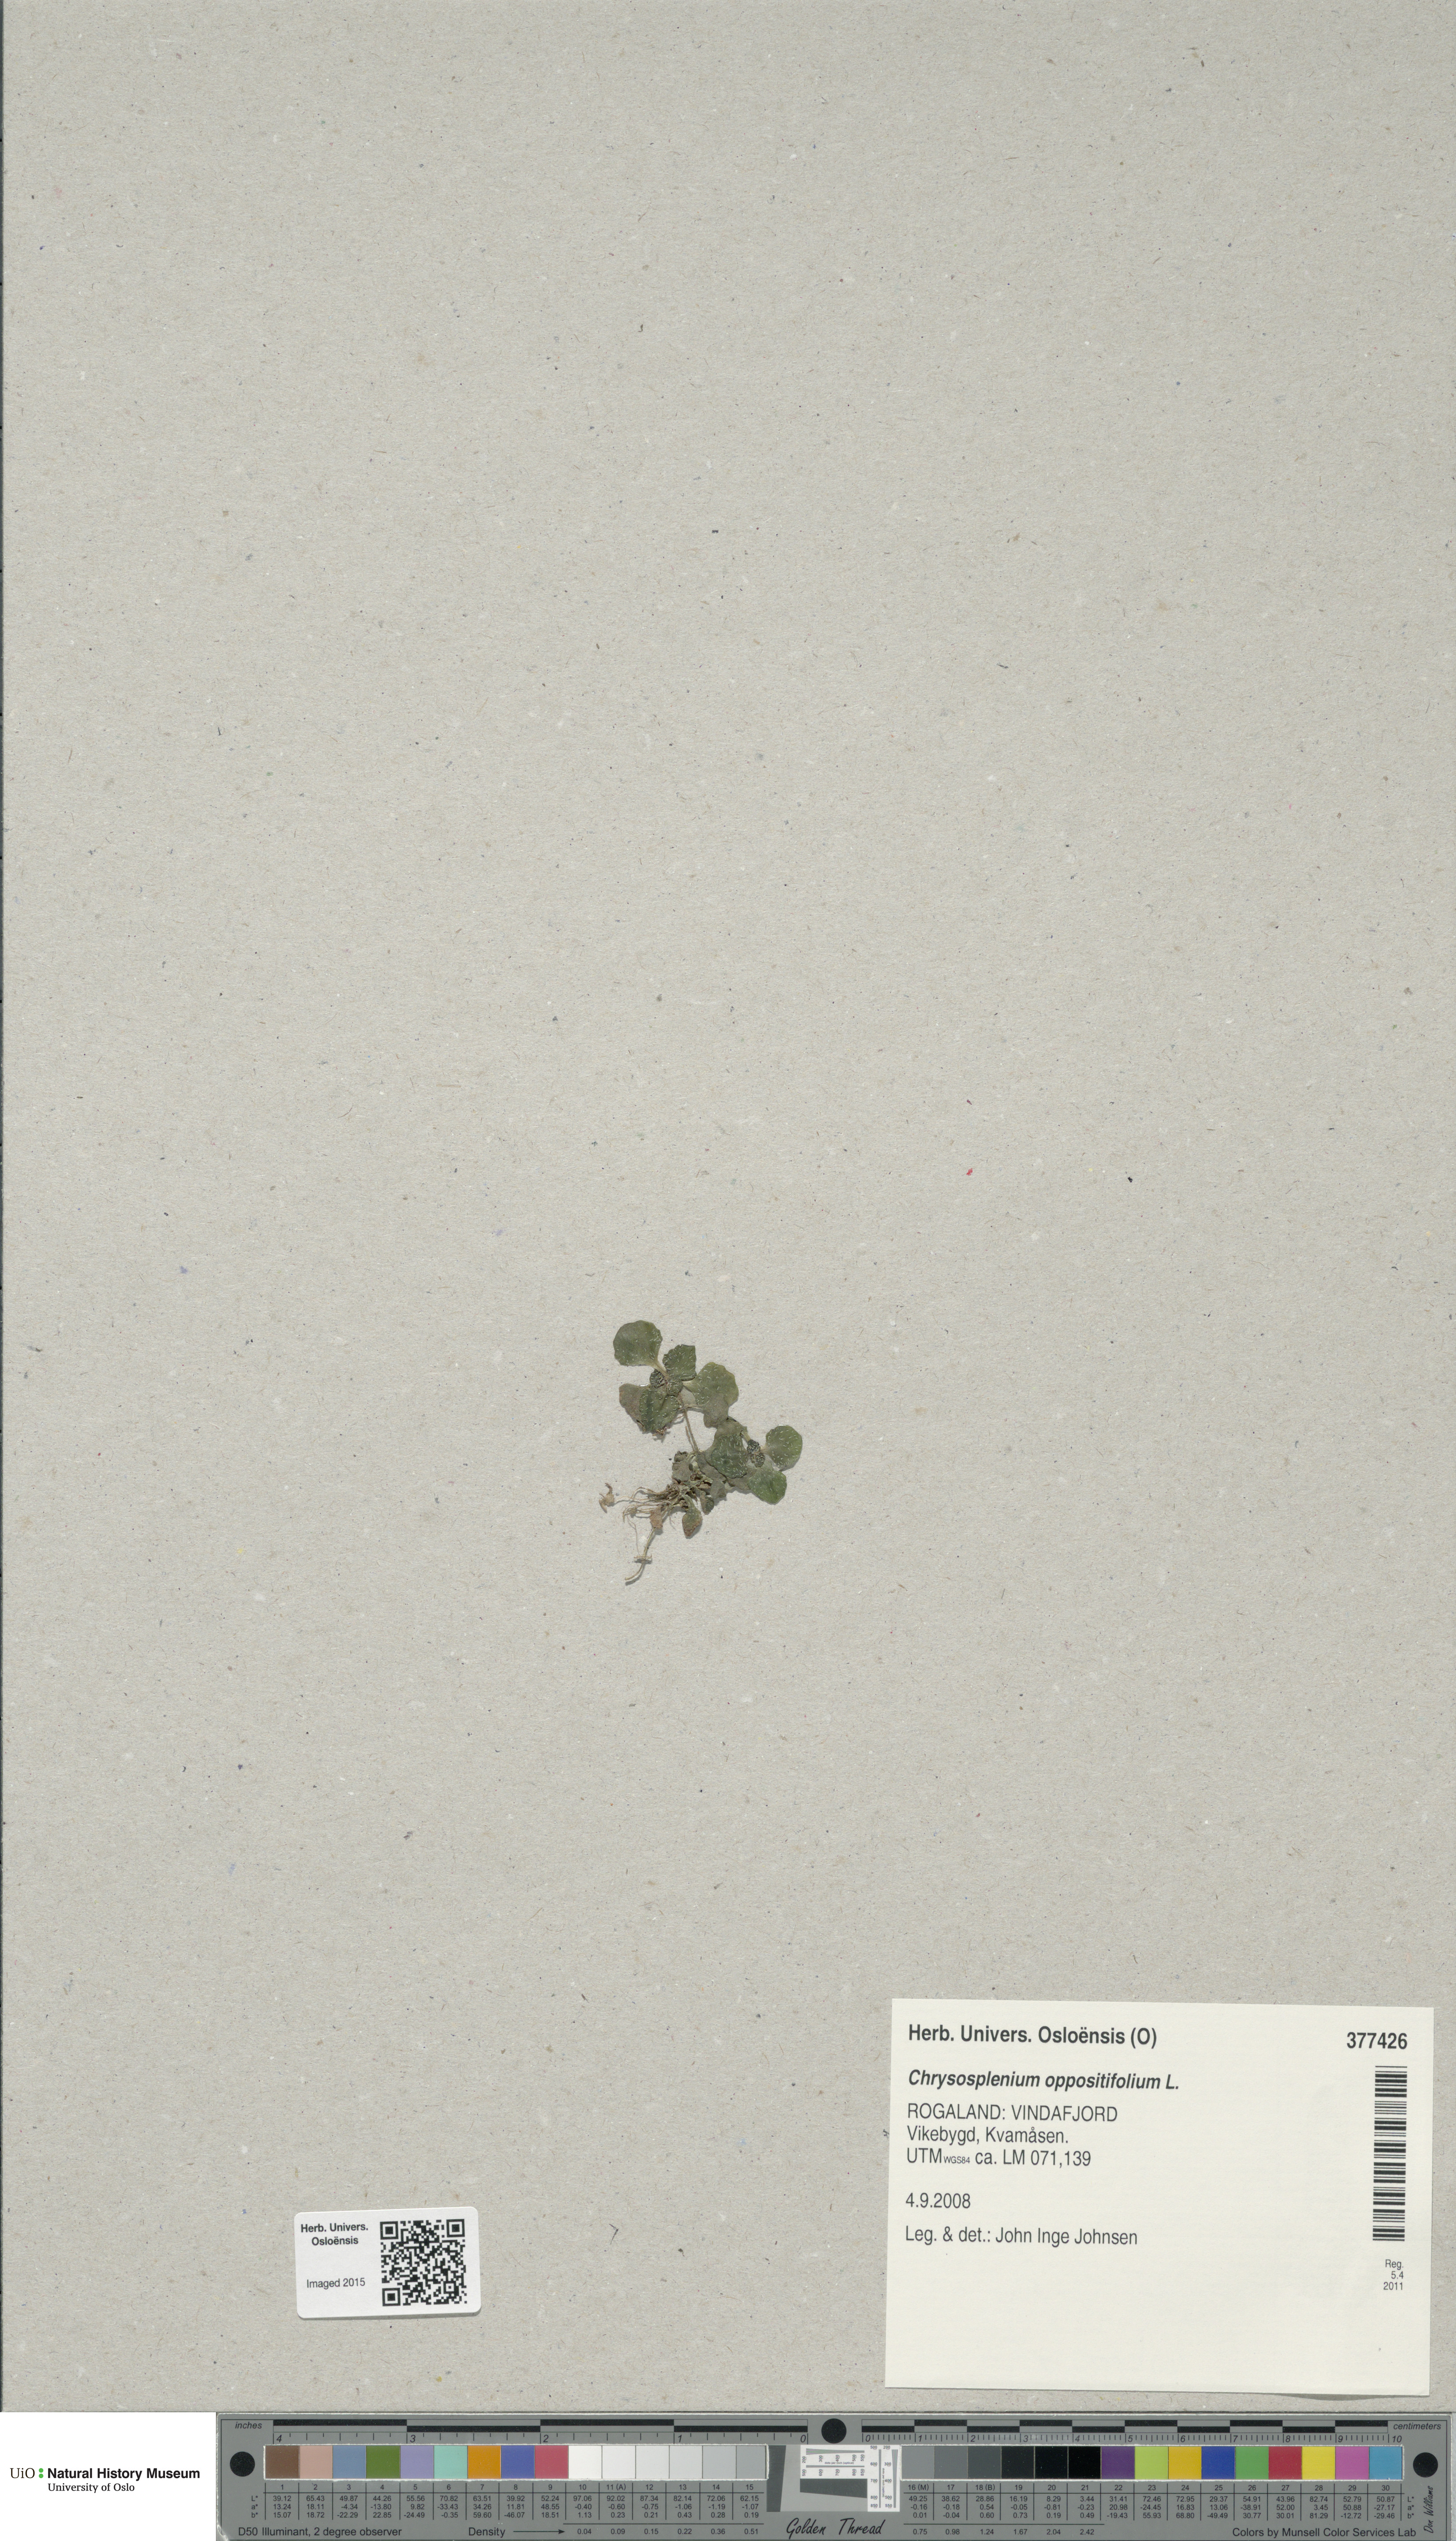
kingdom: Plantae
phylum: Tracheophyta
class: Magnoliopsida
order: Saxifragales
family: Saxifragaceae
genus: Chrysosplenium
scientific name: Chrysosplenium oppositifolium
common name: Opposite-leaved golden-saxifrage
